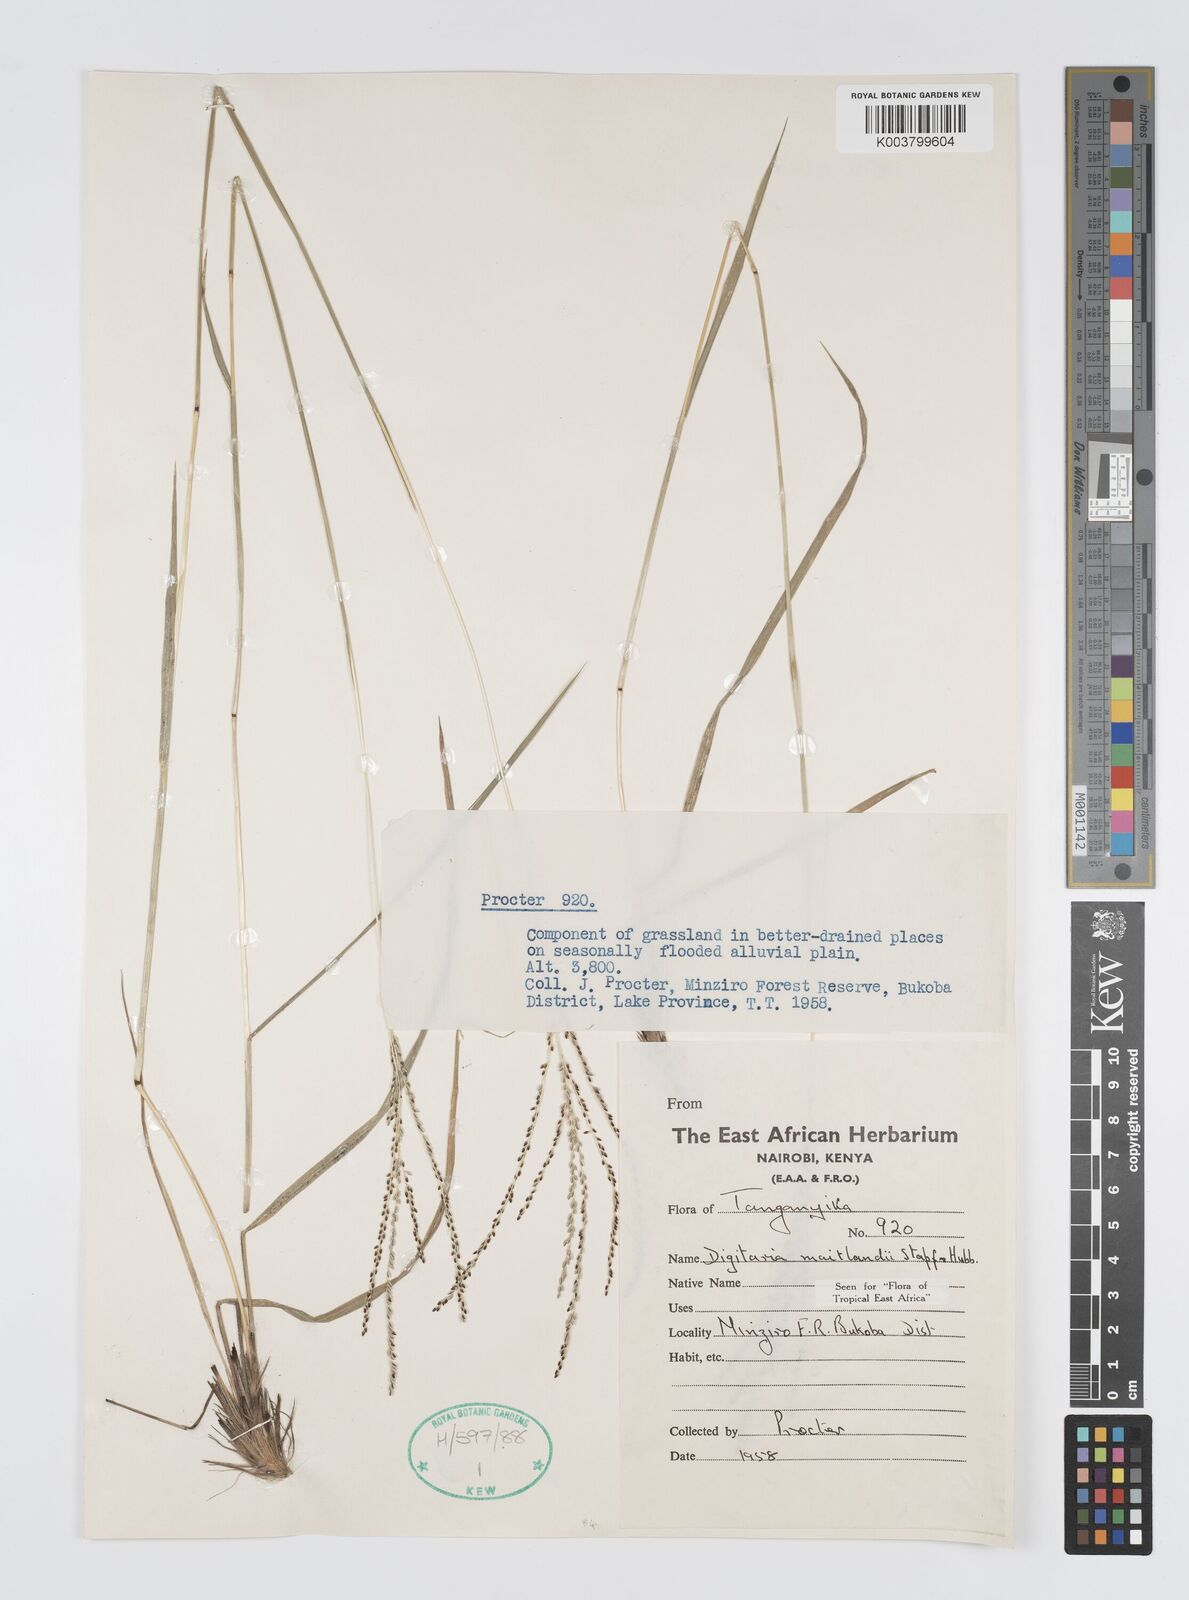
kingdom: Plantae
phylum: Tracheophyta
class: Liliopsida
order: Poales
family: Poaceae
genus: Digitaria
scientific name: Digitaria maitlandii
